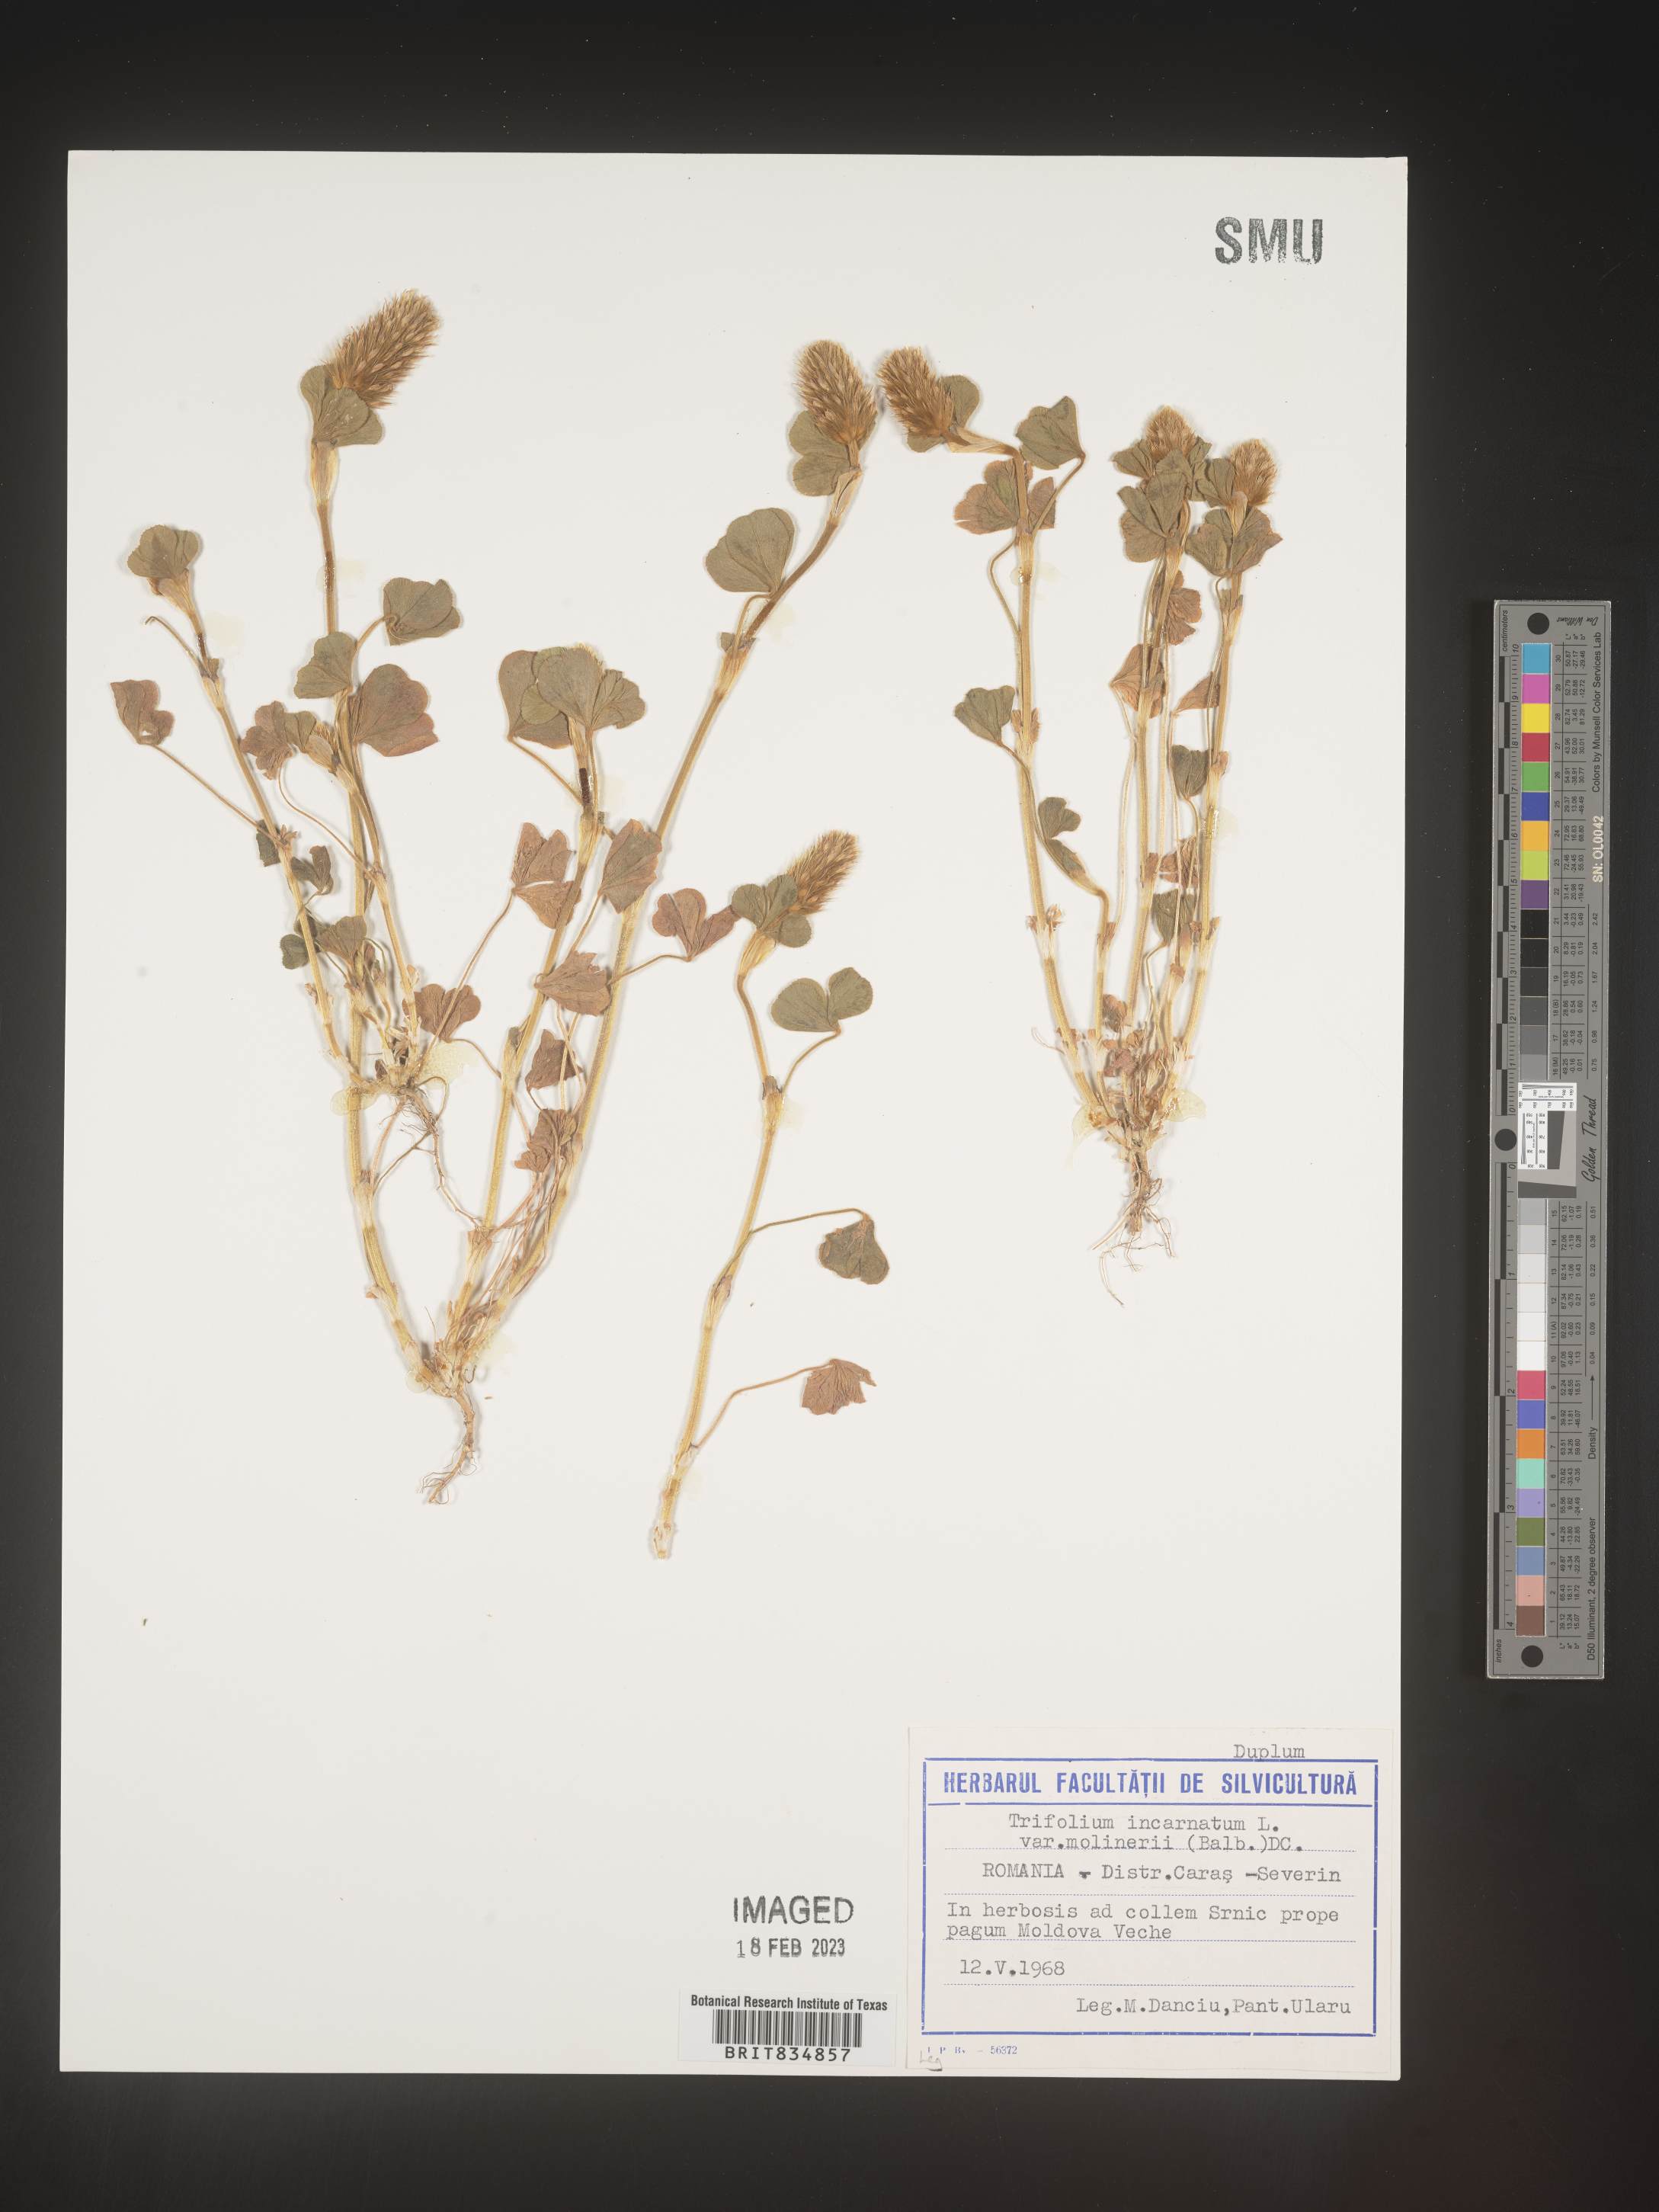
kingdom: Plantae
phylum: Tracheophyta
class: Magnoliopsida
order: Fabales
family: Fabaceae
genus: Trifolium
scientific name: Trifolium incarnatum
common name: Crimson clover
